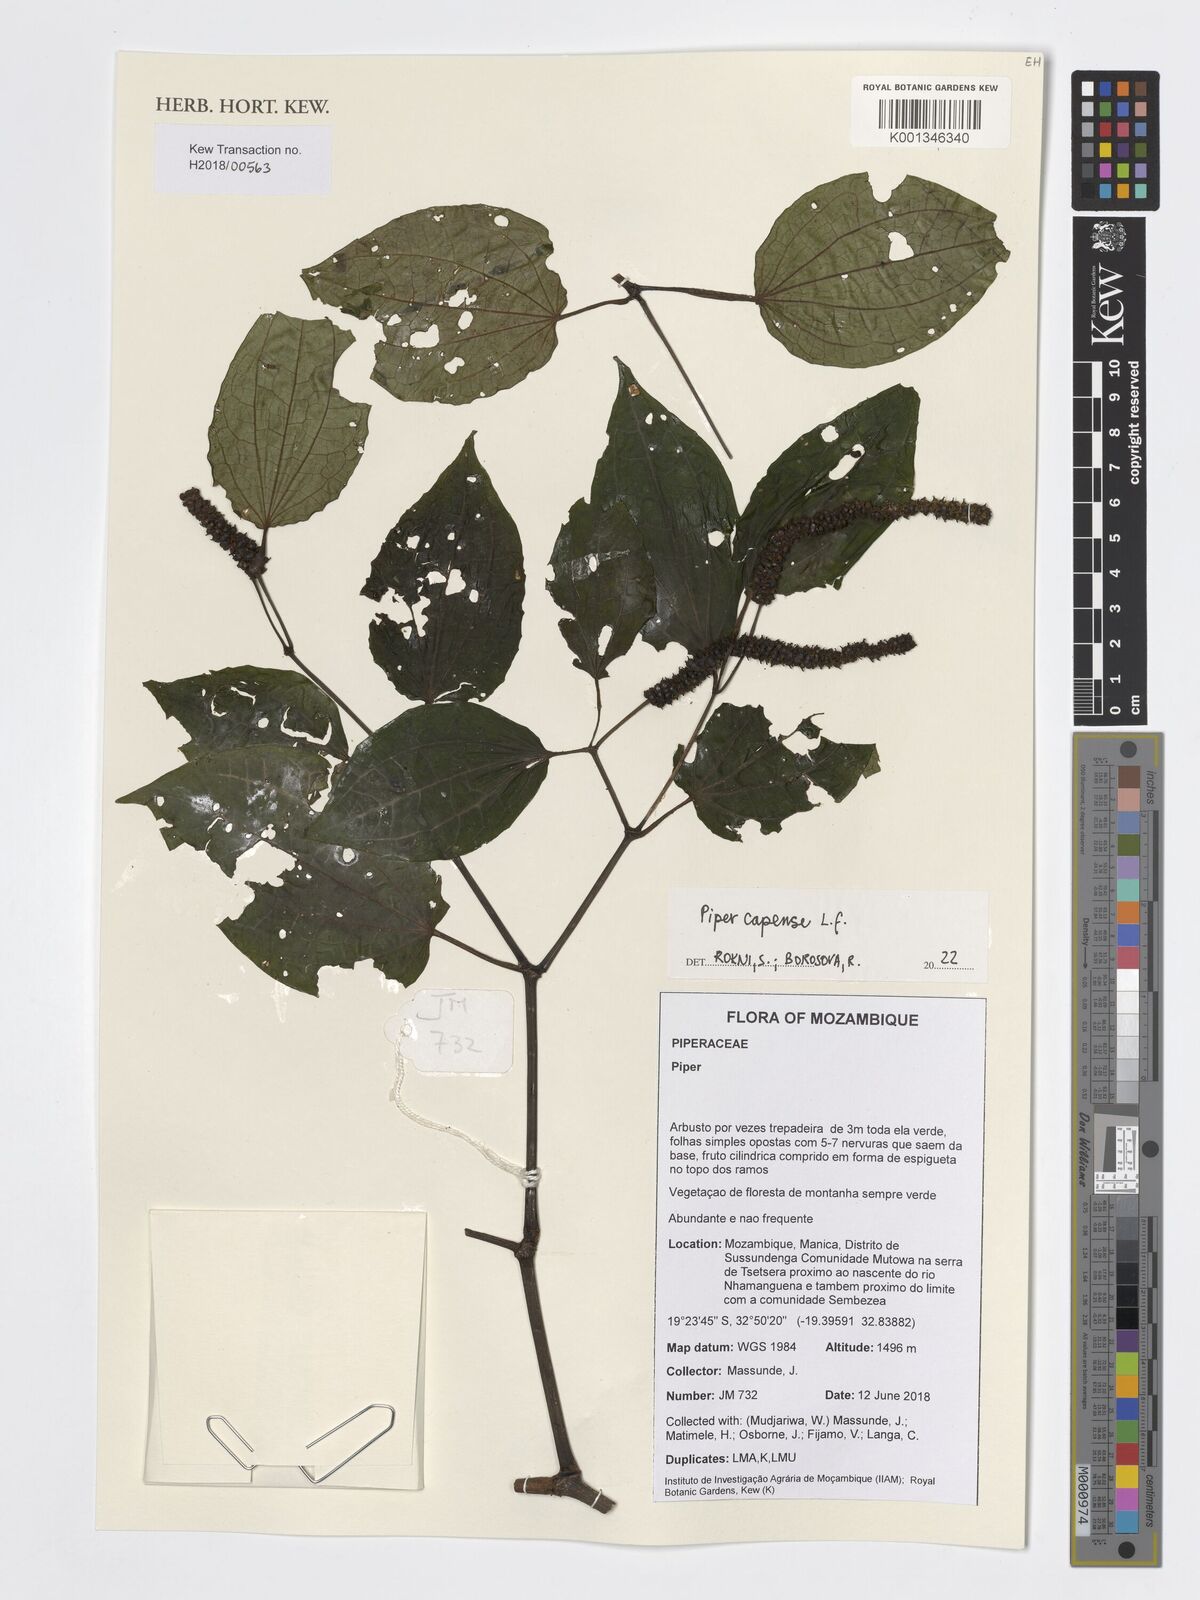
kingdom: Plantae
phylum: Tracheophyta
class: Magnoliopsida
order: Piperales
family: Piperaceae
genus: Piper
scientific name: Piper capense
